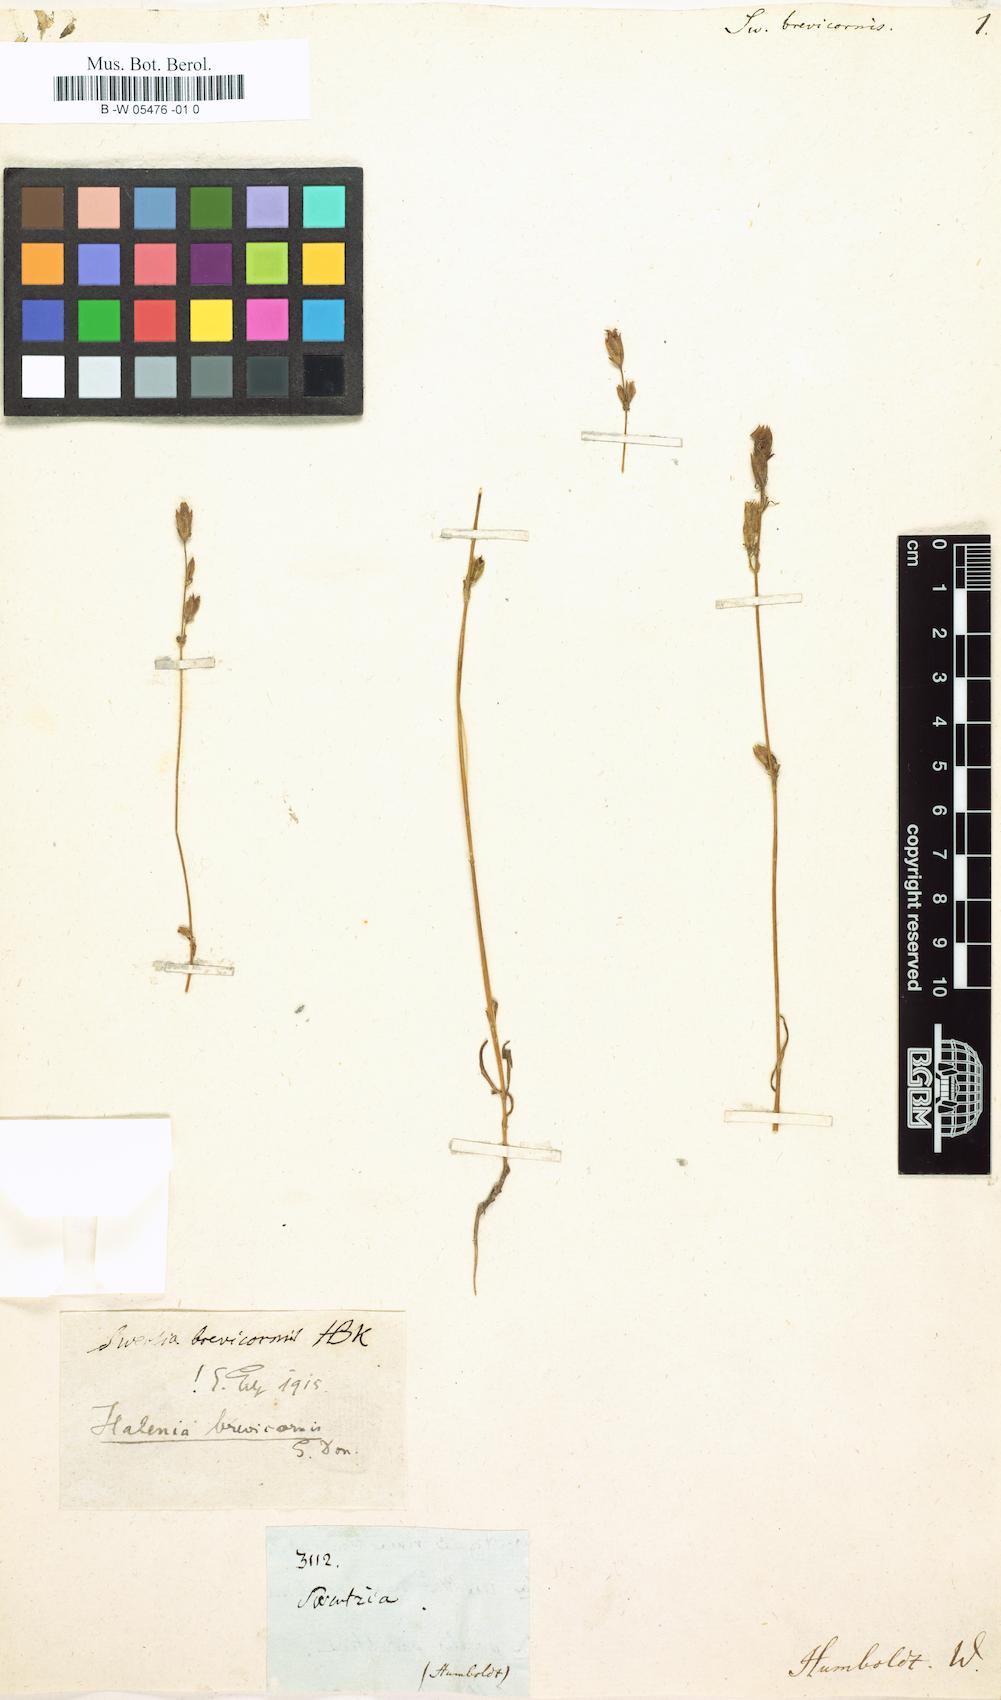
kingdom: Plantae
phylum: Tracheophyta
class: Magnoliopsida
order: Gentianales
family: Gentianaceae
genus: Halenia
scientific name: Halenia brevicornis
